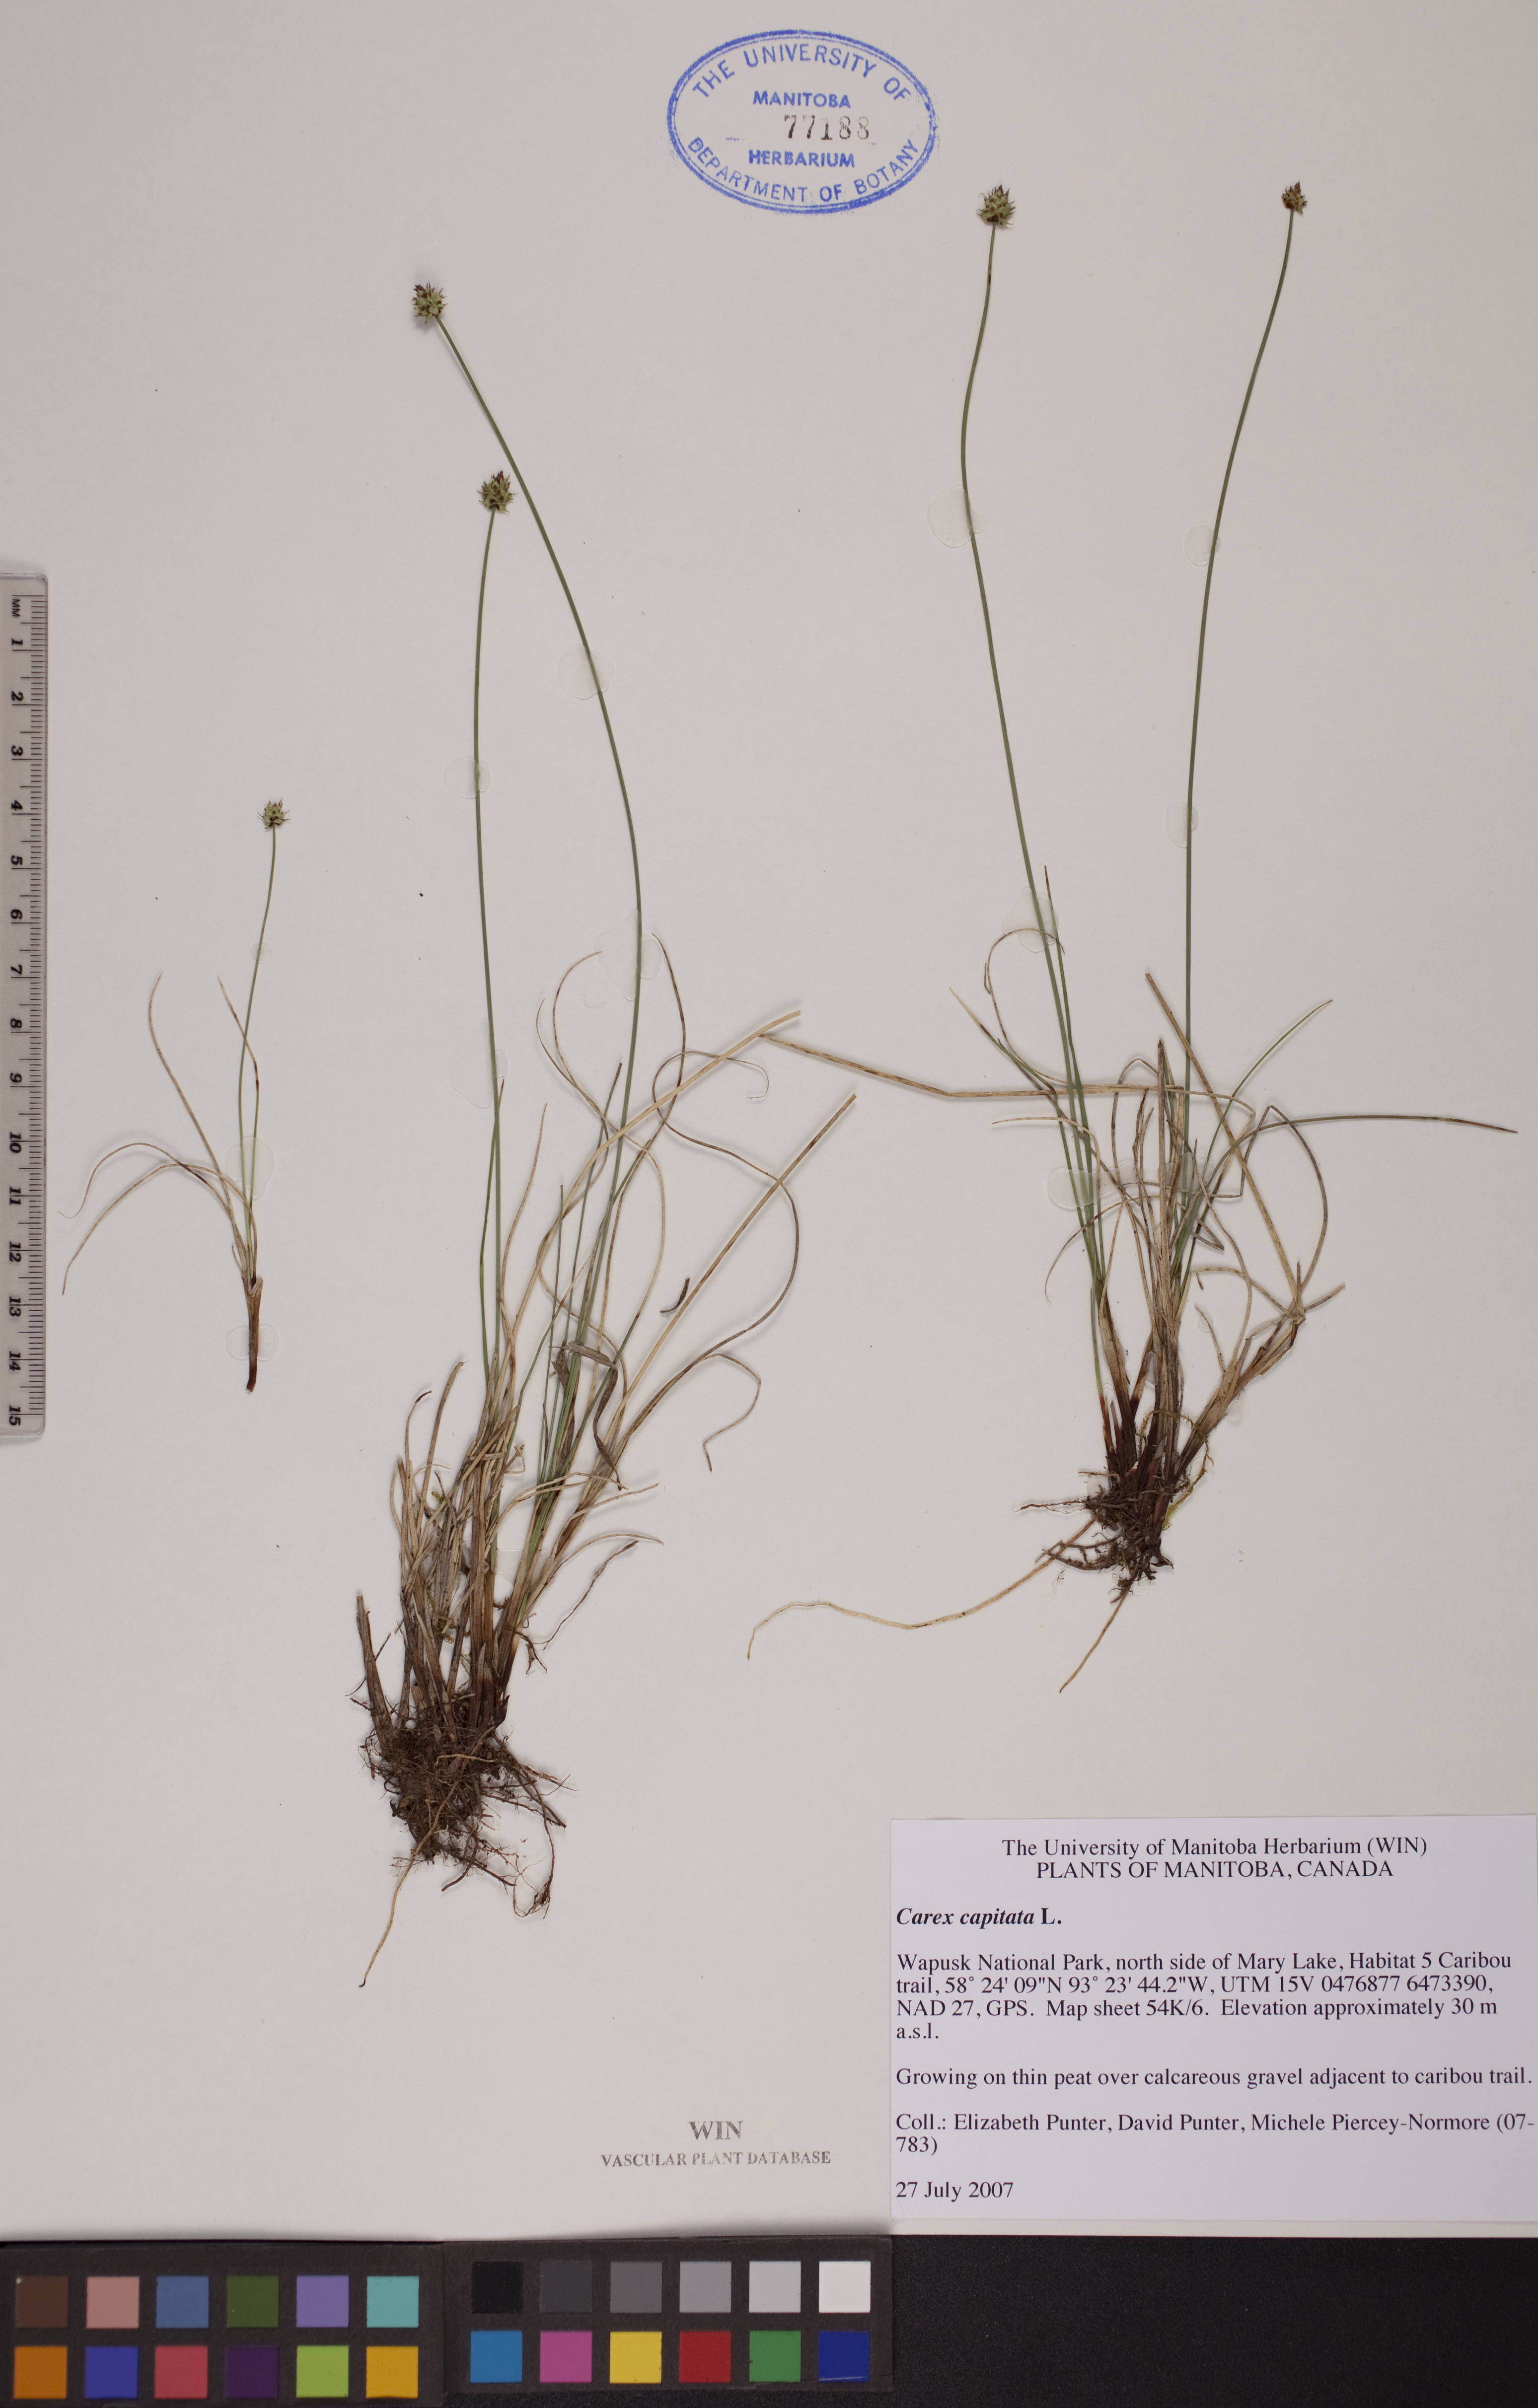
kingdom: Plantae
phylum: Tracheophyta
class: Liliopsida
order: Poales
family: Cyperaceae
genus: Carex
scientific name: Carex capitata
